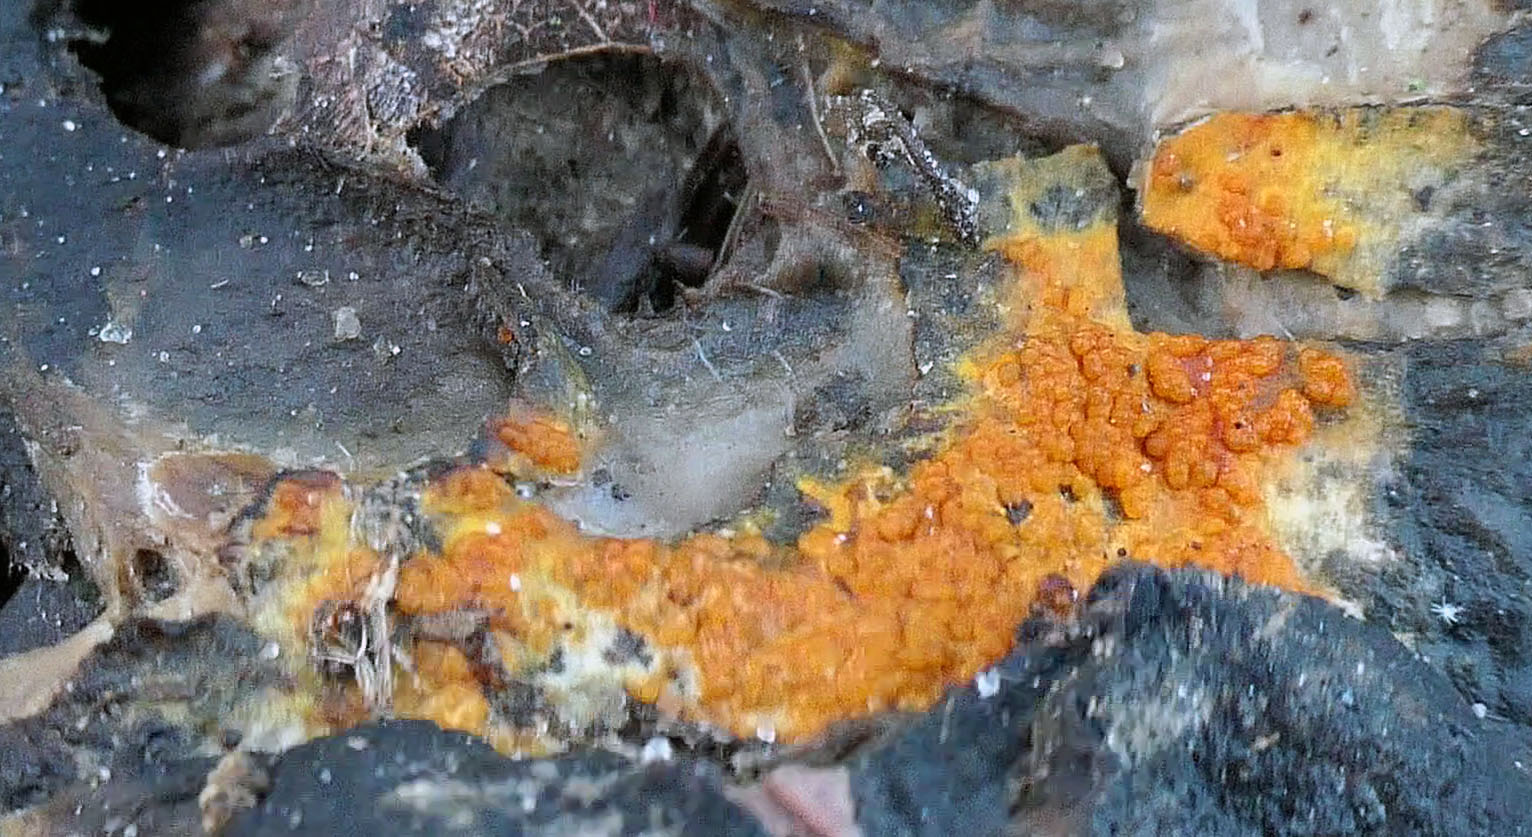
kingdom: Fungi
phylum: Ascomycota
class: Sordariomycetes
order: Hypocreales
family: Hypocreaceae
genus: Hypomyces
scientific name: Hypomyces aurantius
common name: almindelig snylteskorpe
